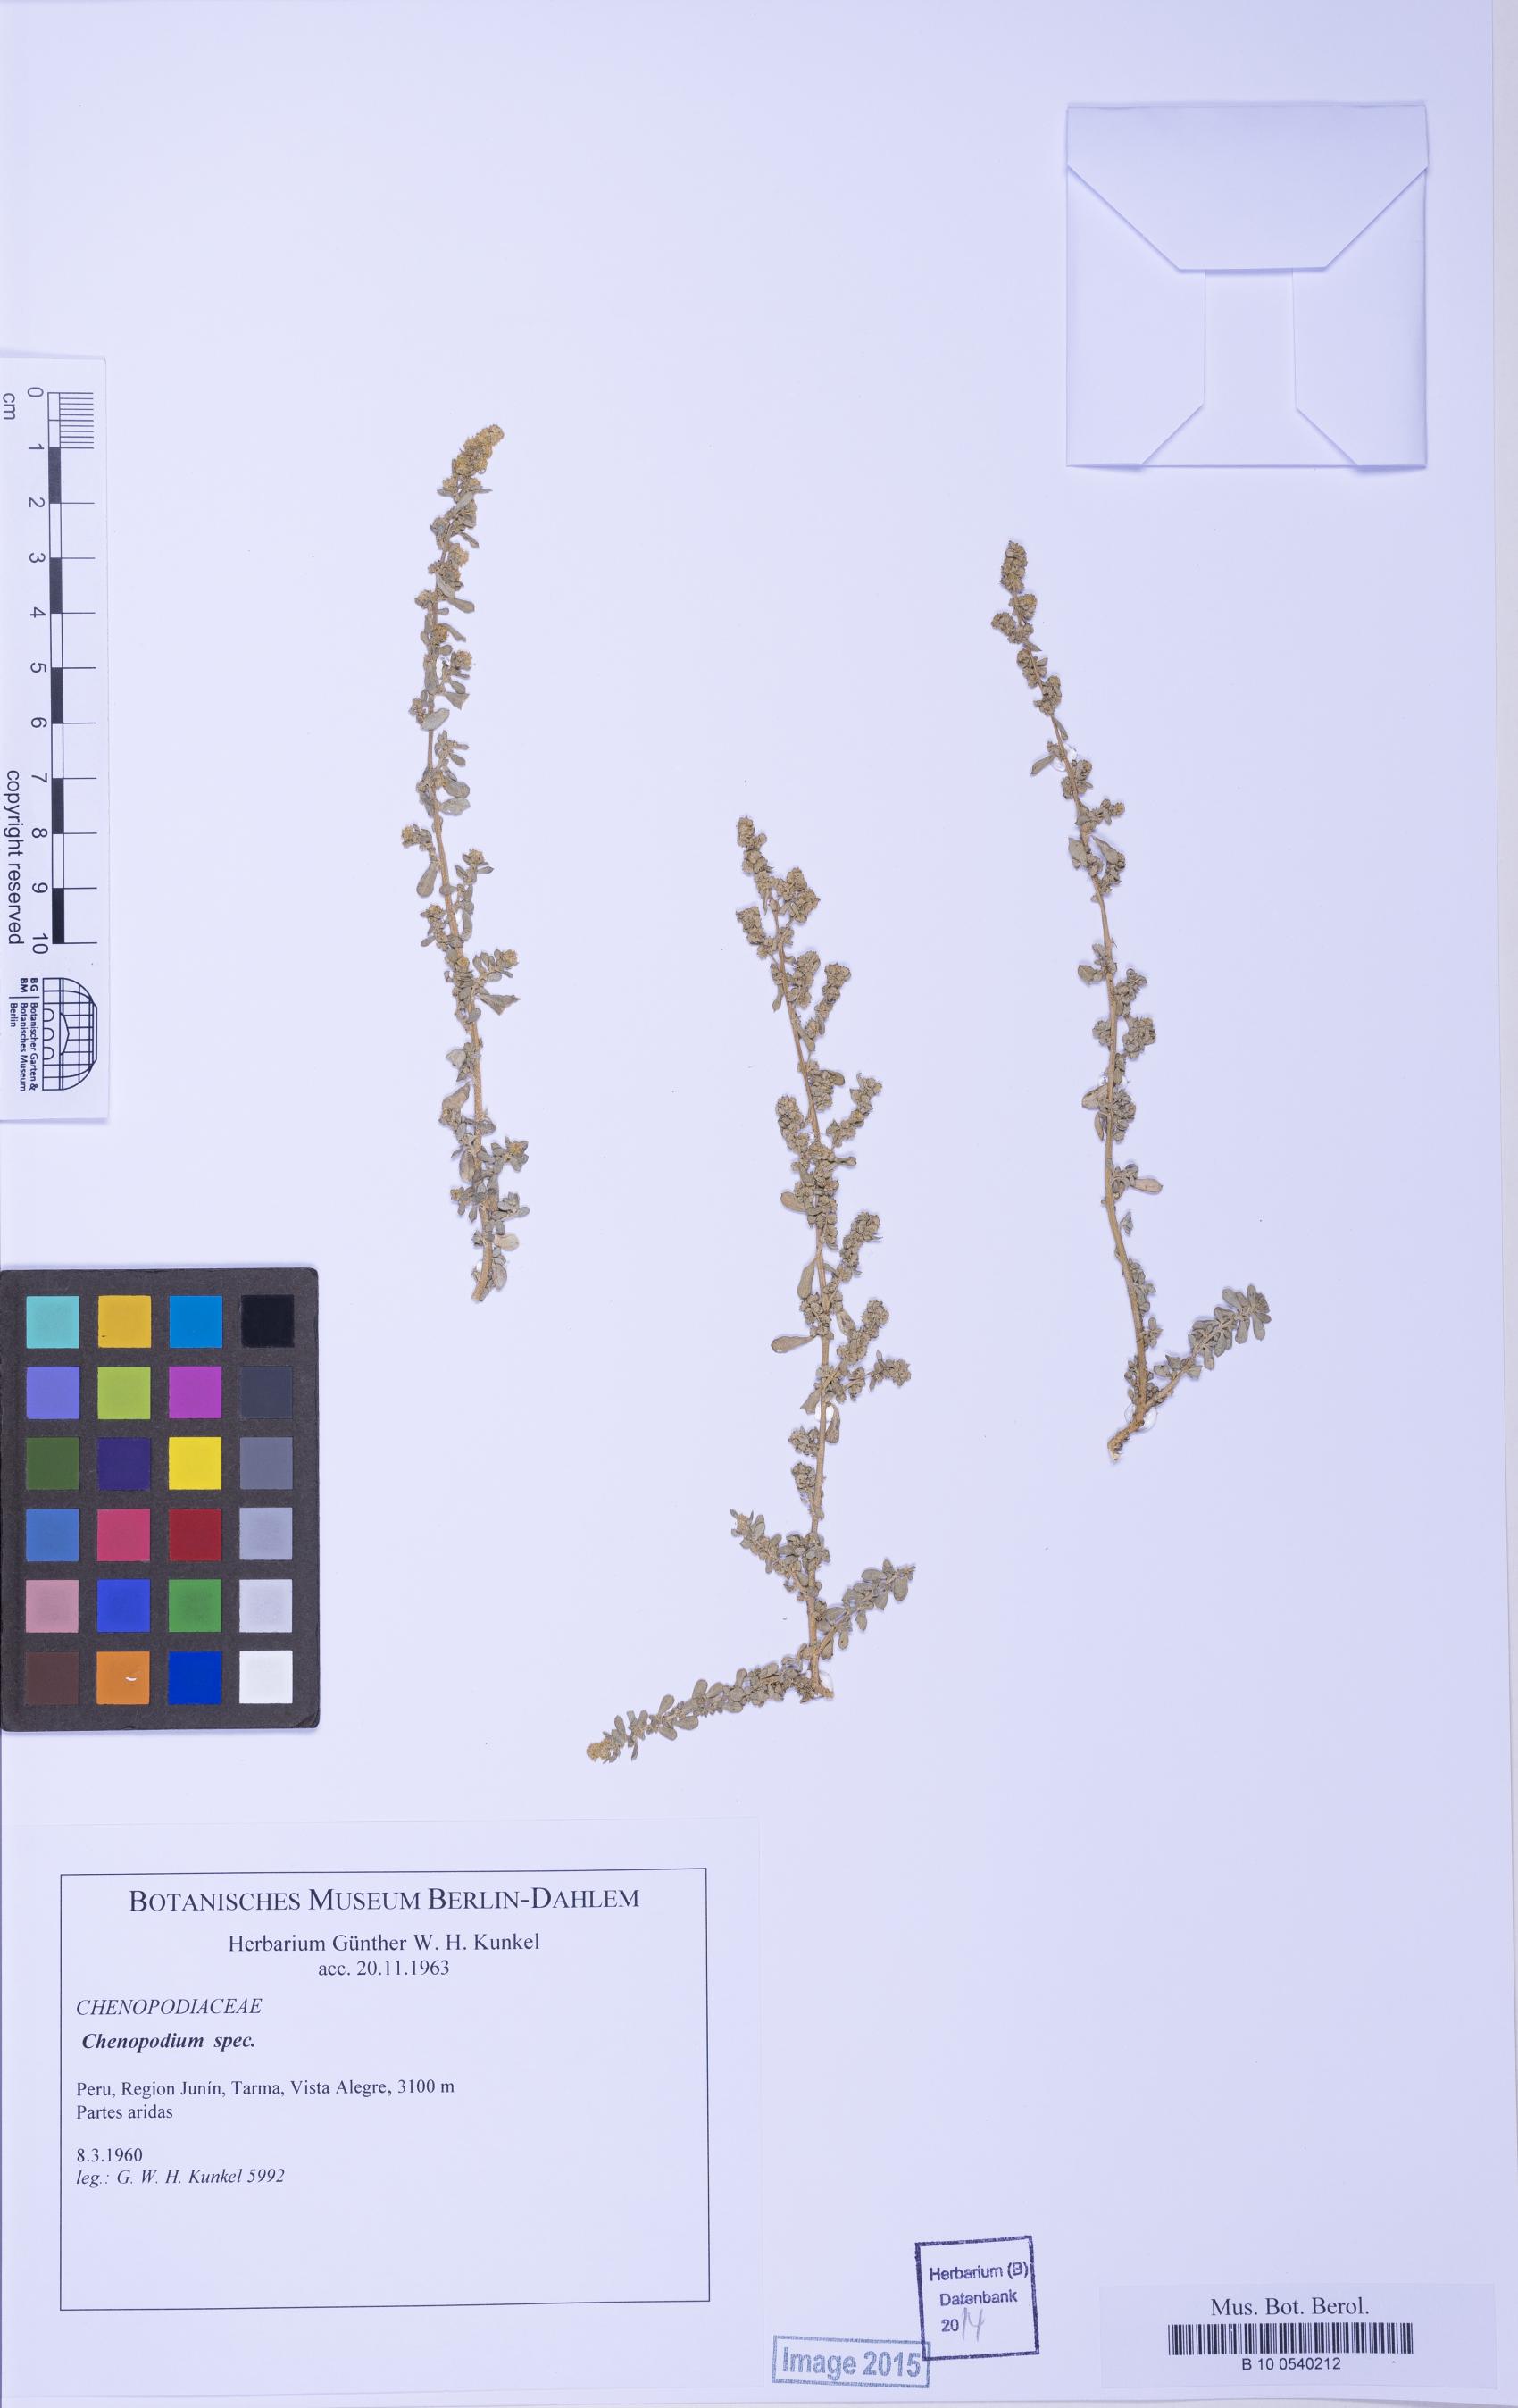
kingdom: Plantae
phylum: Tracheophyta
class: Magnoliopsida
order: Caryophyllales
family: Amaranthaceae
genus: Chenopodium
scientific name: Chenopodium
